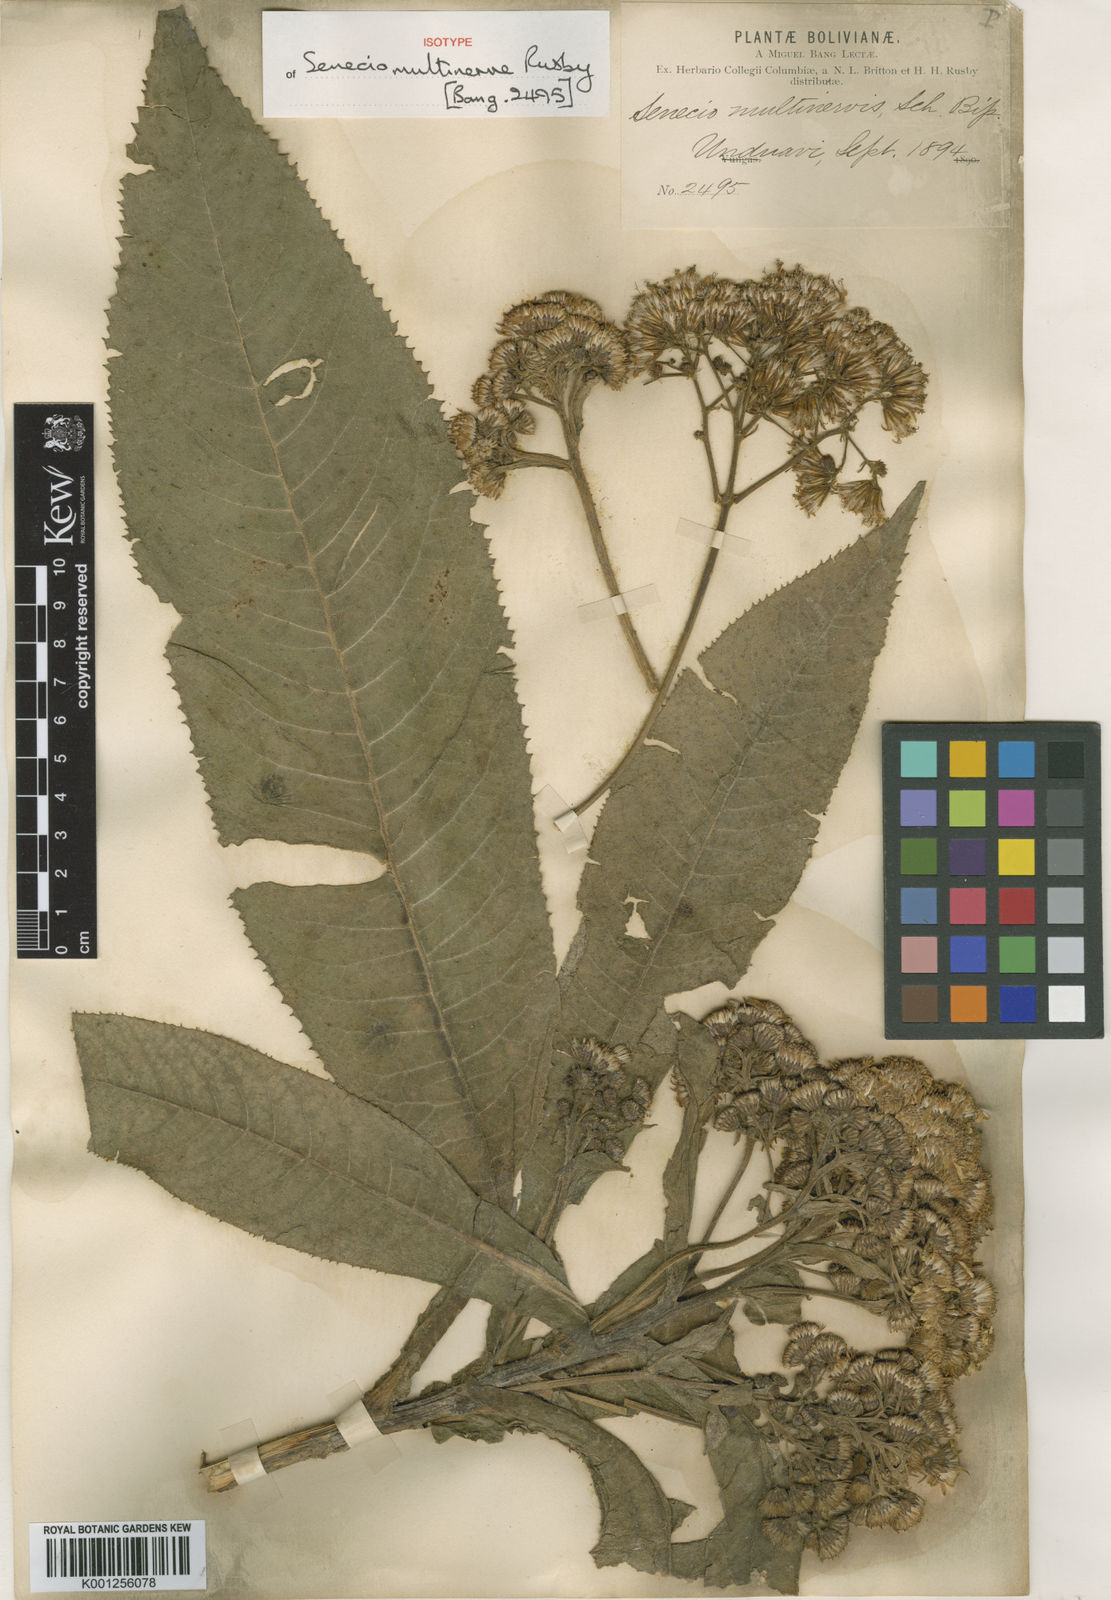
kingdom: Plantae
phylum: Tracheophyta
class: Magnoliopsida
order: Asterales
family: Asteraceae
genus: Dendrophorbium
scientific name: Dendrophorbium ayopayense
